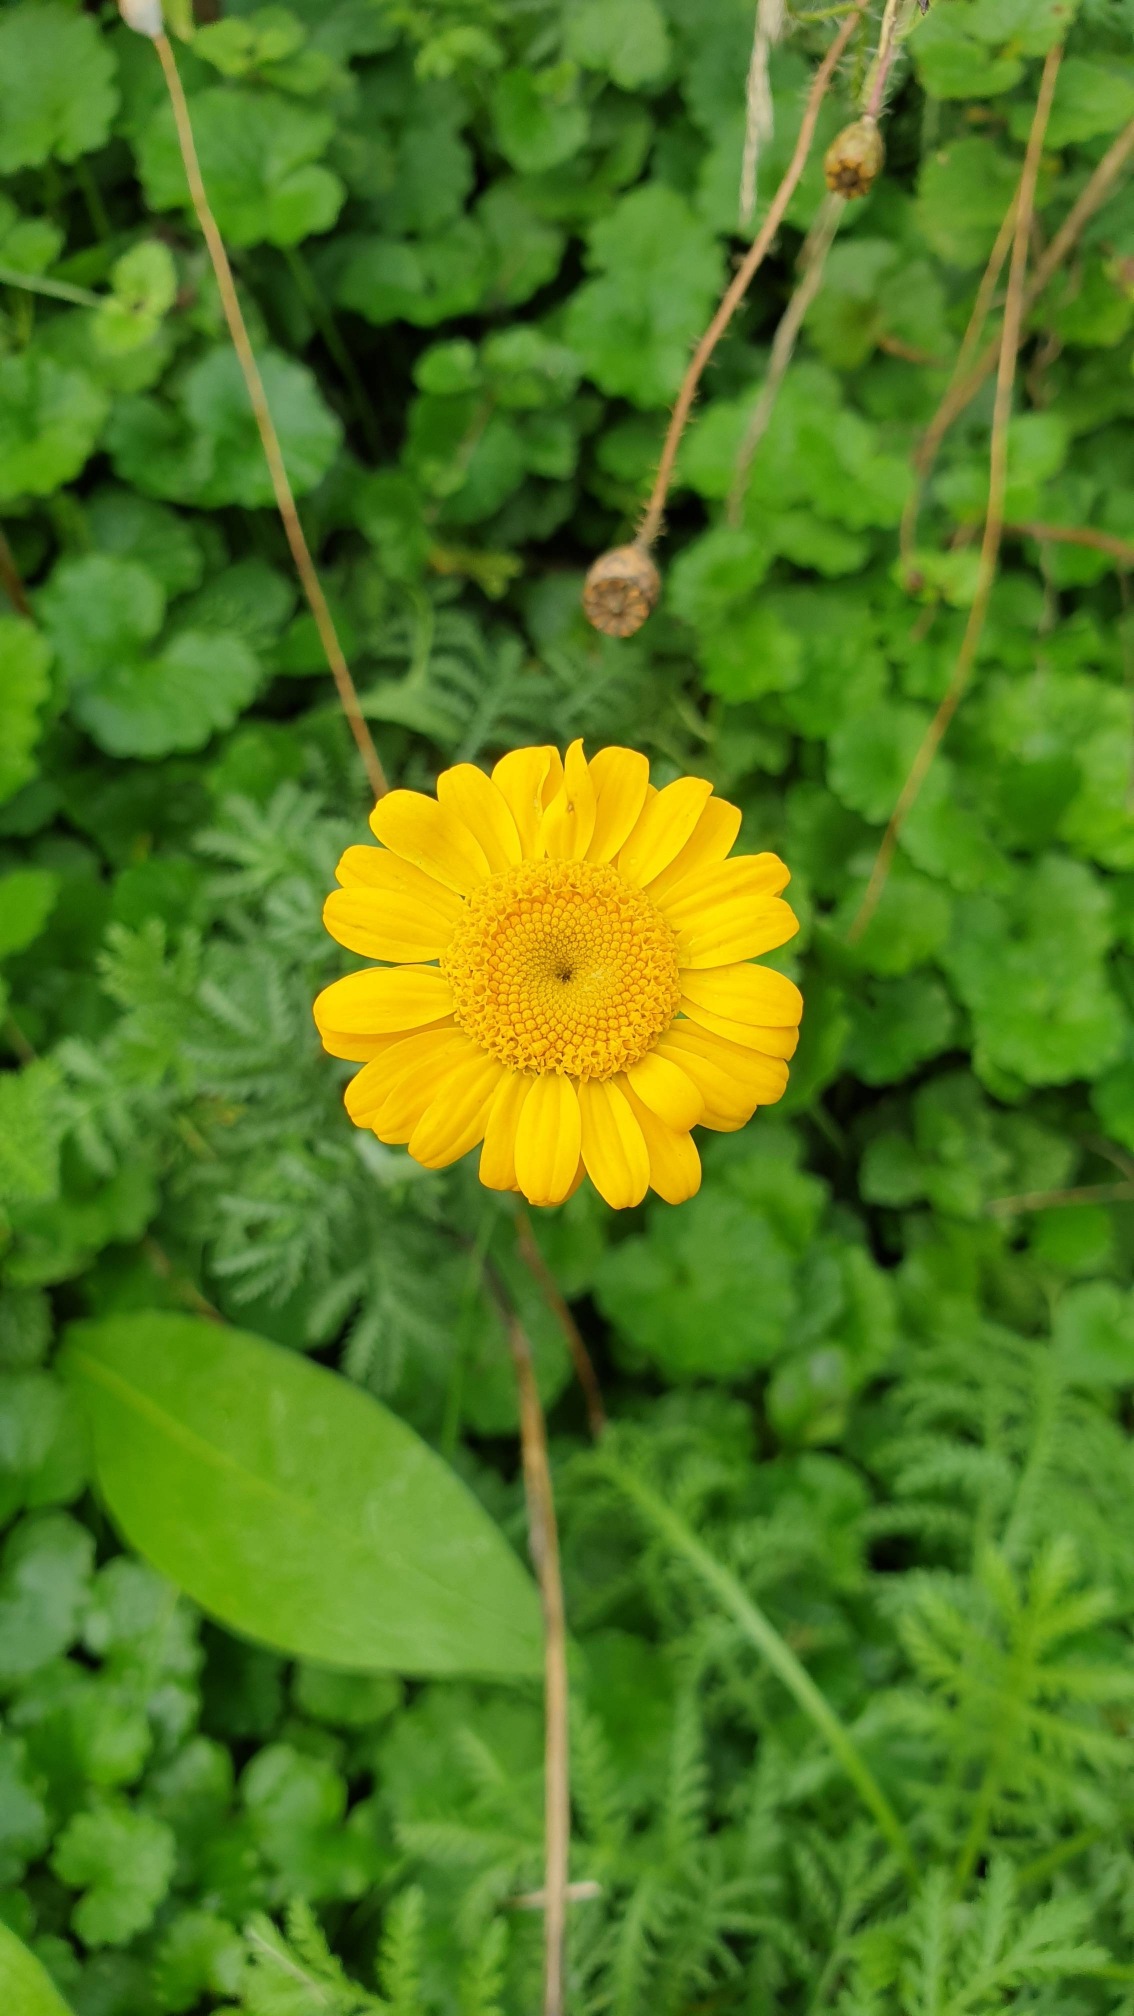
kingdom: Plantae
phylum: Tracheophyta
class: Magnoliopsida
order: Asterales
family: Asteraceae
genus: Cota
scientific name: Cota tinctoria
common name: Farve-gåseurt
